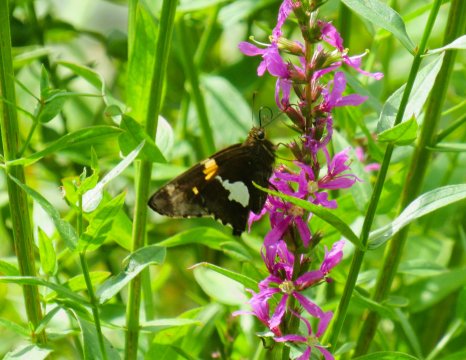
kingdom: Animalia
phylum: Arthropoda
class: Insecta
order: Lepidoptera
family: Hesperiidae
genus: Epargyreus
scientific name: Epargyreus clarus
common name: Silver-spotted Skipper
